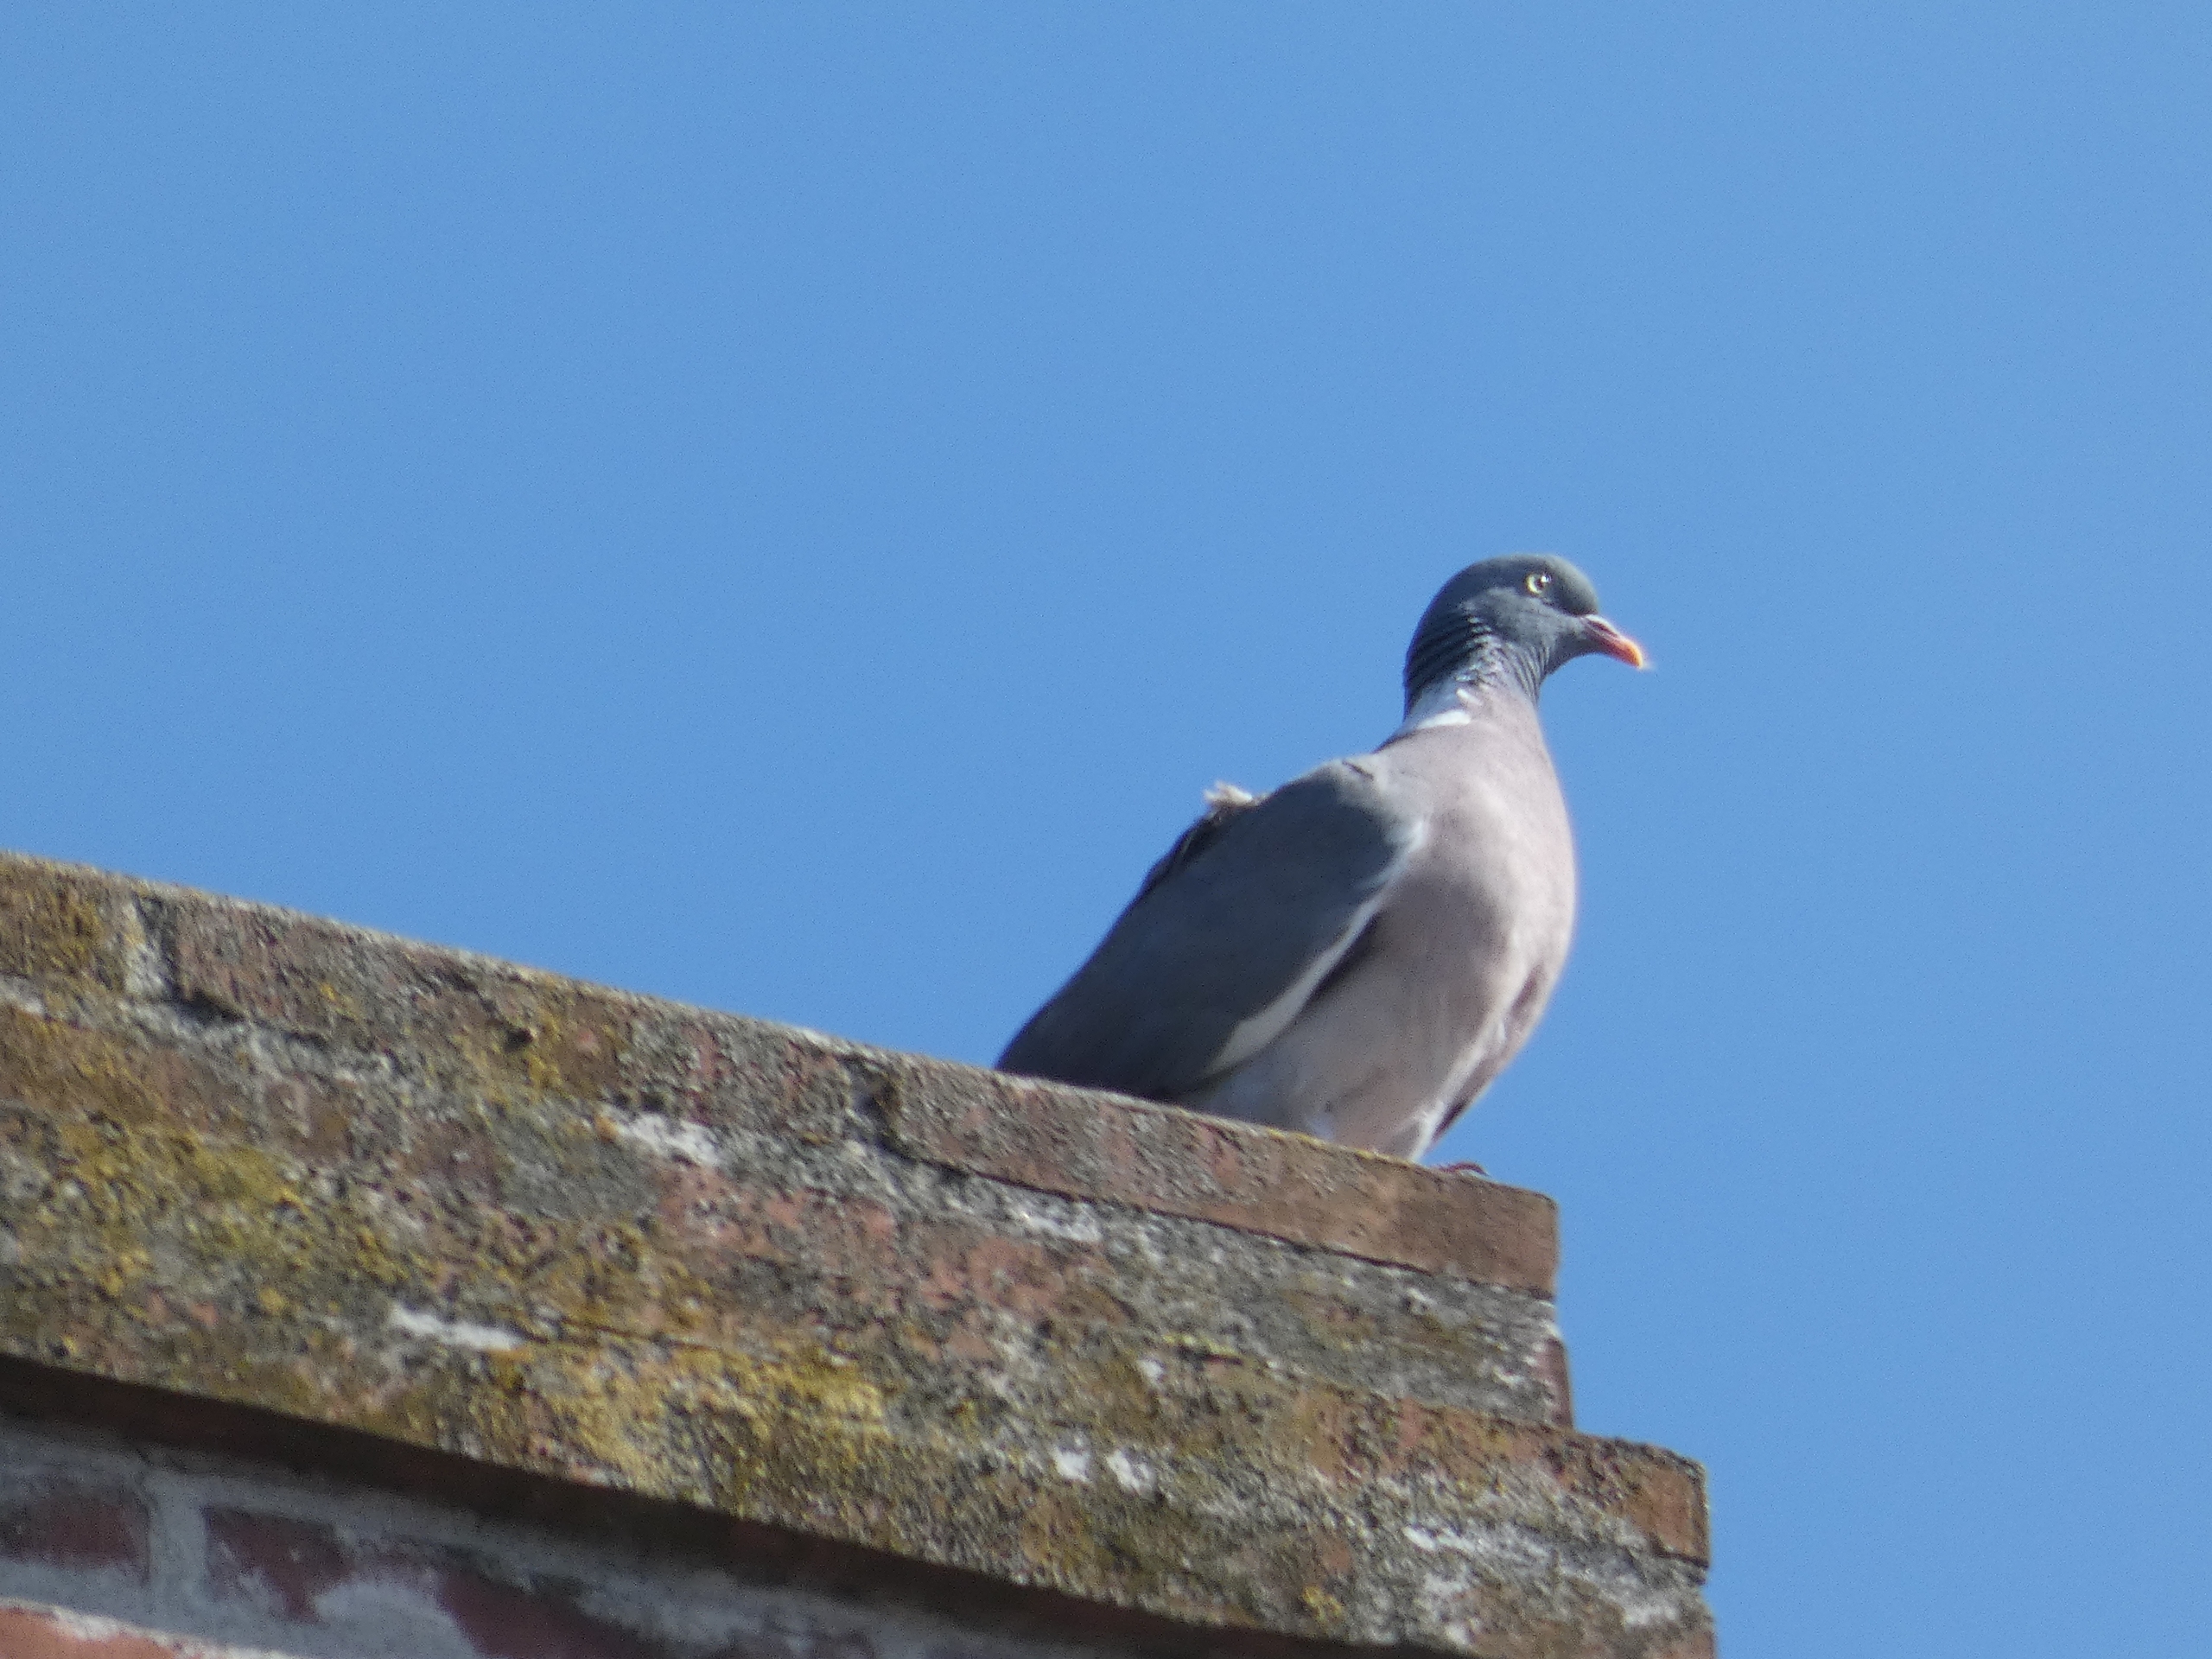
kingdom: Animalia
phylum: Chordata
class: Aves
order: Columbiformes
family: Columbidae
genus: Columba
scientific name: Columba palumbus
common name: Ringdue
